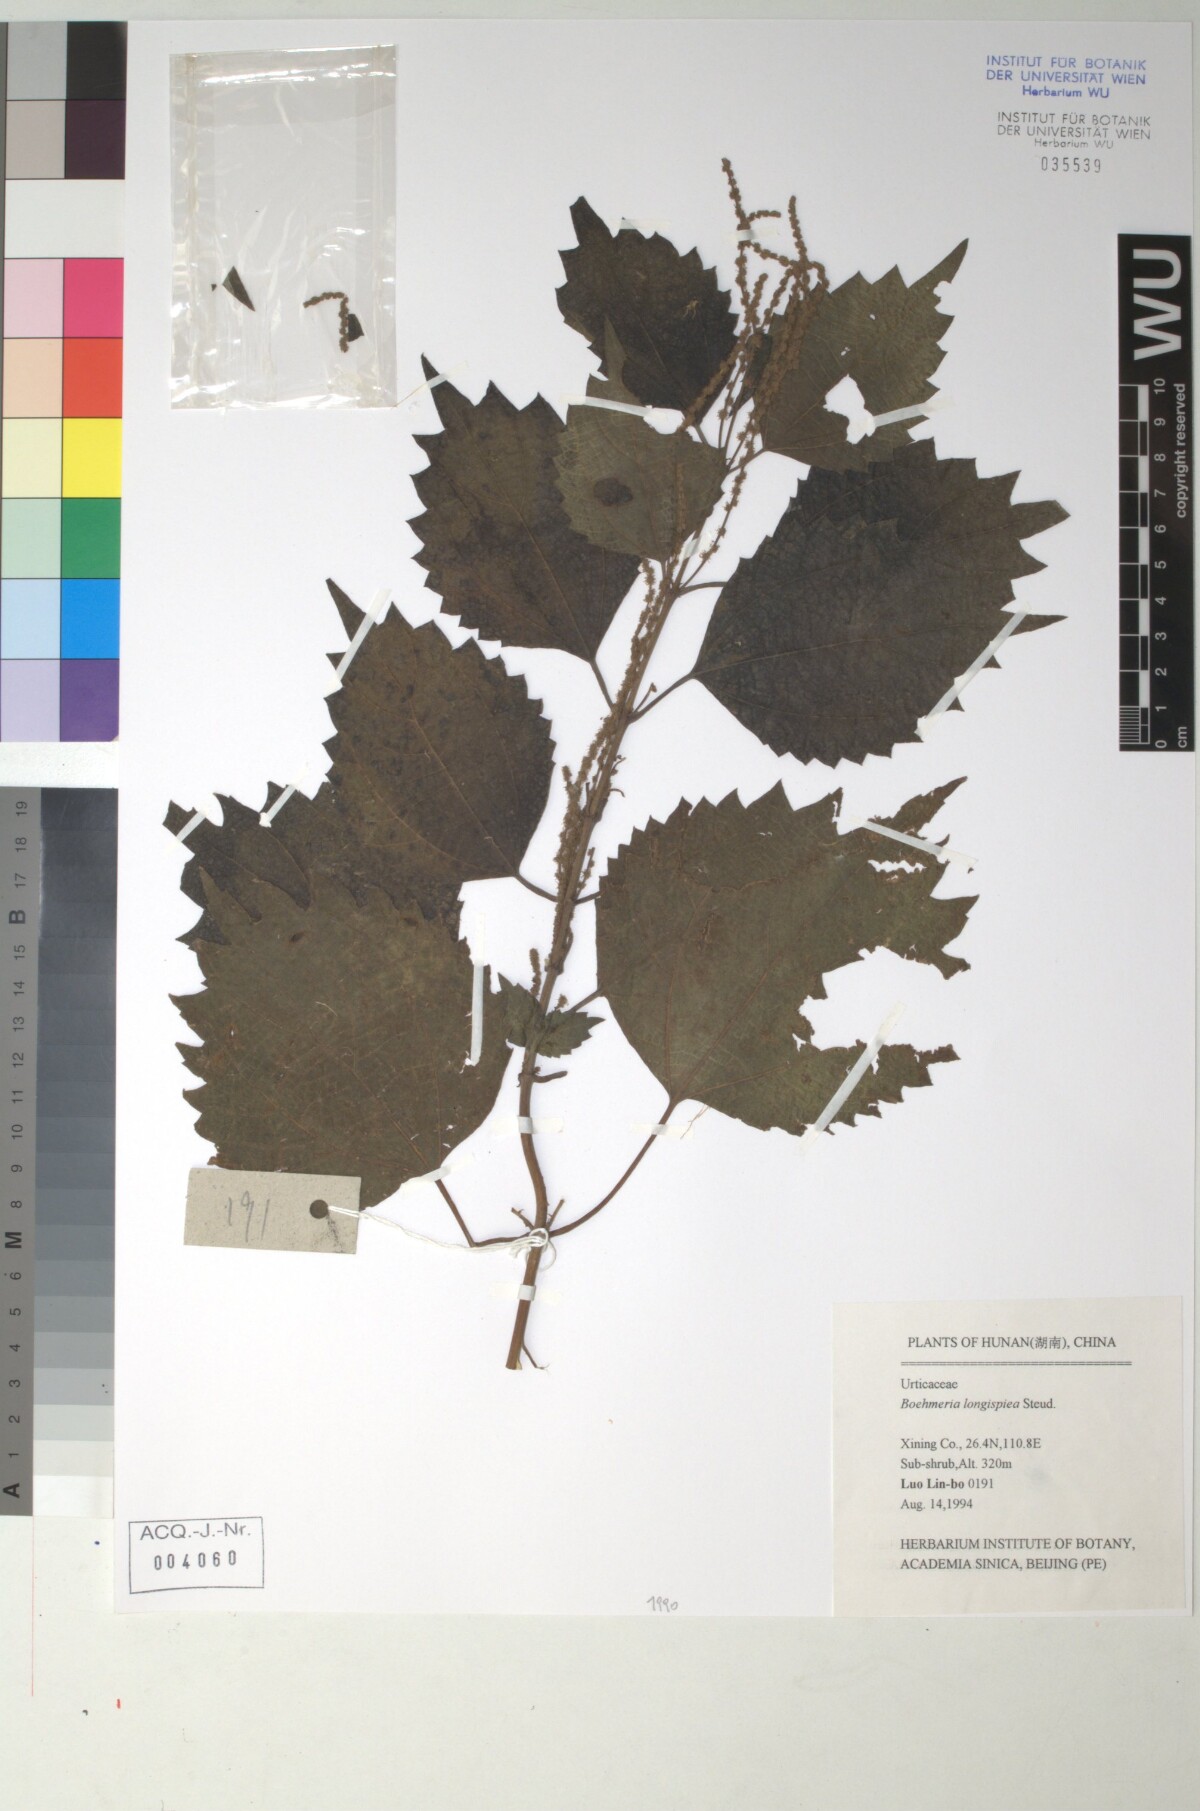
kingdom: Plantae
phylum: Tracheophyta
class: Magnoliopsida
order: Rosales
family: Urticaceae
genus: Boehmeria
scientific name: Boehmeria japonica
